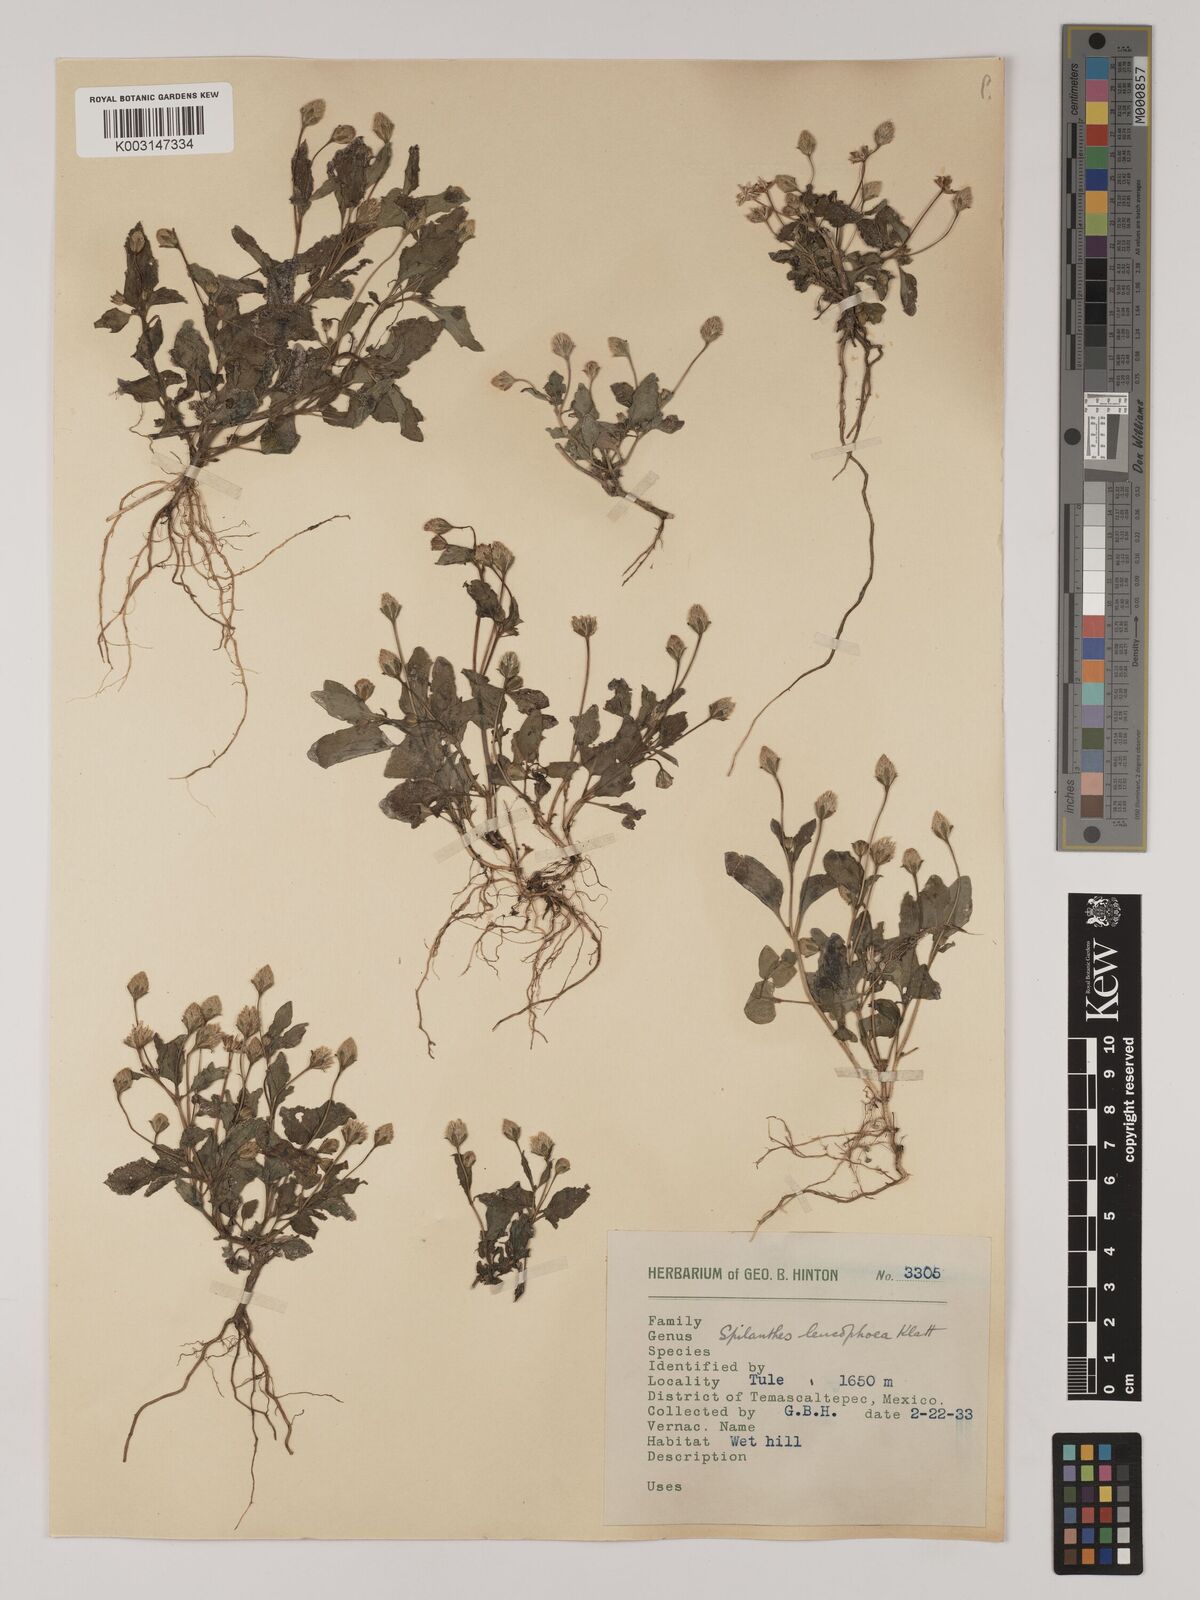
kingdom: Plantae
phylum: Tracheophyta
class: Magnoliopsida
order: Asterales
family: Asteraceae
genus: Acmella
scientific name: Acmella radicans
